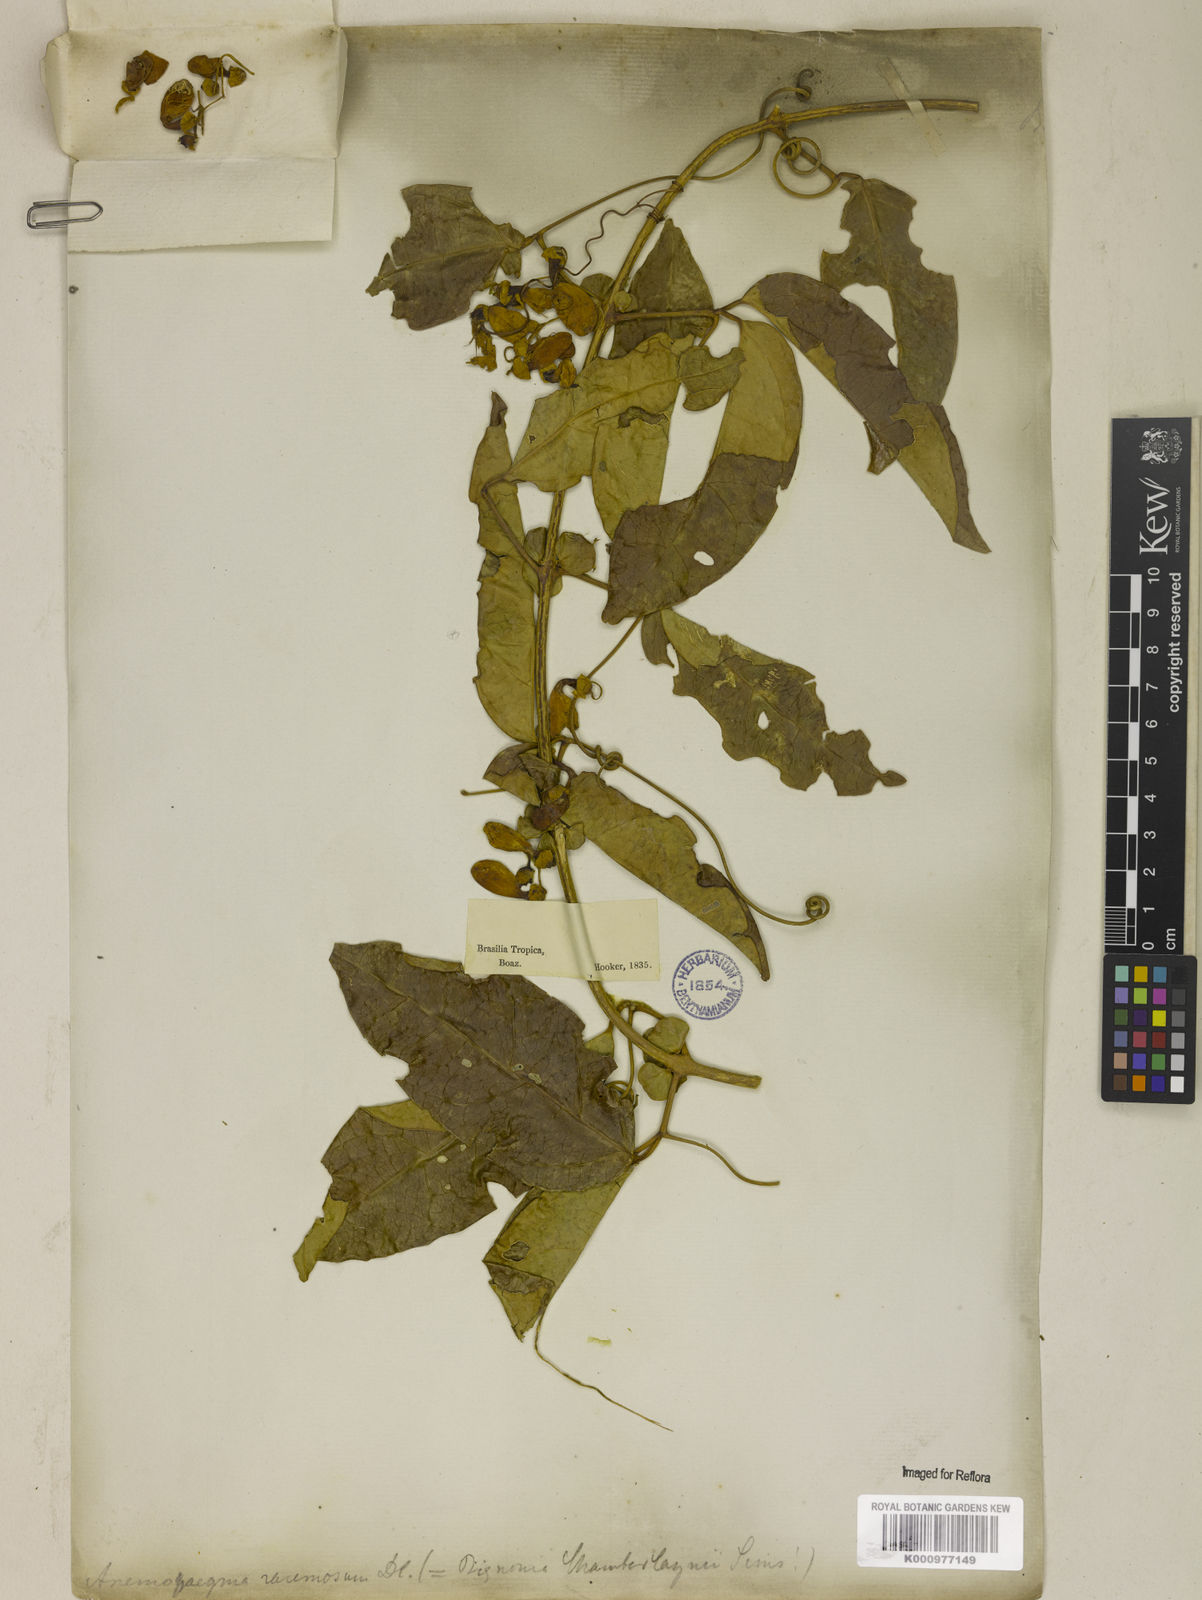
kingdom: Plantae
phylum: Tracheophyta
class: Magnoliopsida
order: Lamiales
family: Bignoniaceae
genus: Anemopaegma
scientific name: Anemopaegma chamberlaynii
